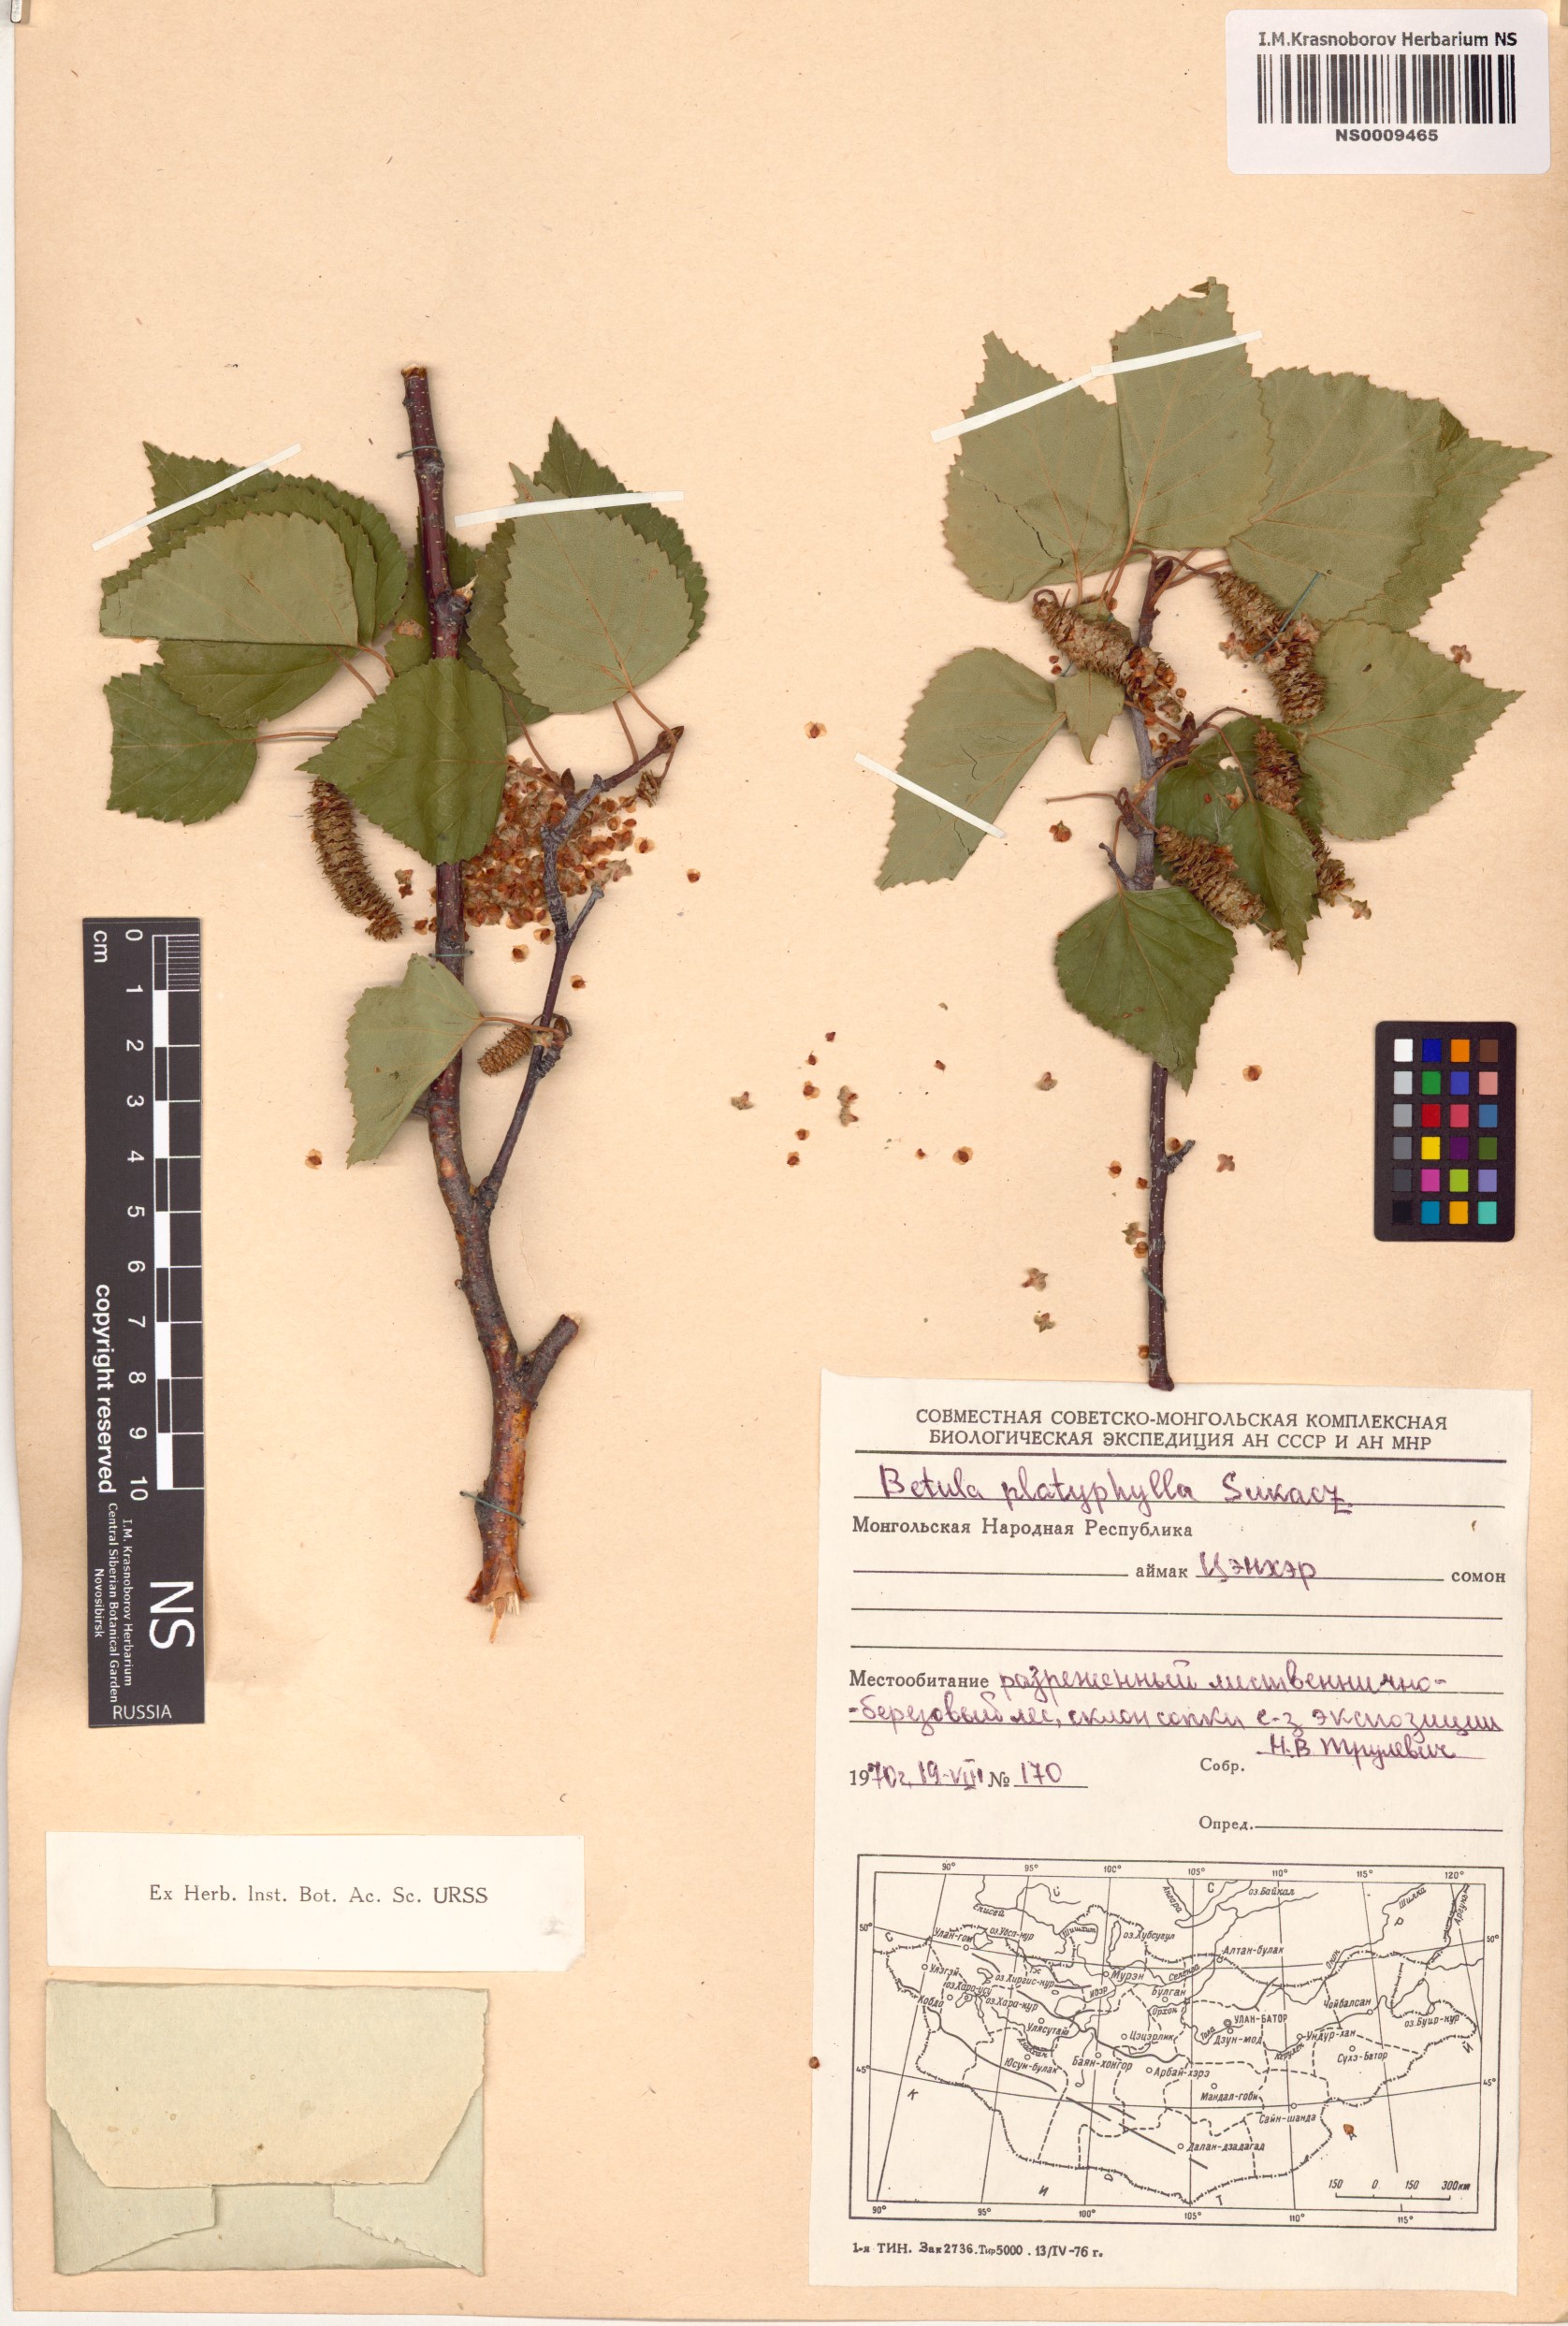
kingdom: Plantae
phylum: Tracheophyta
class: Magnoliopsida
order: Fagales
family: Betulaceae
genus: Betula
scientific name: Betula pendula
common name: Silver birch
